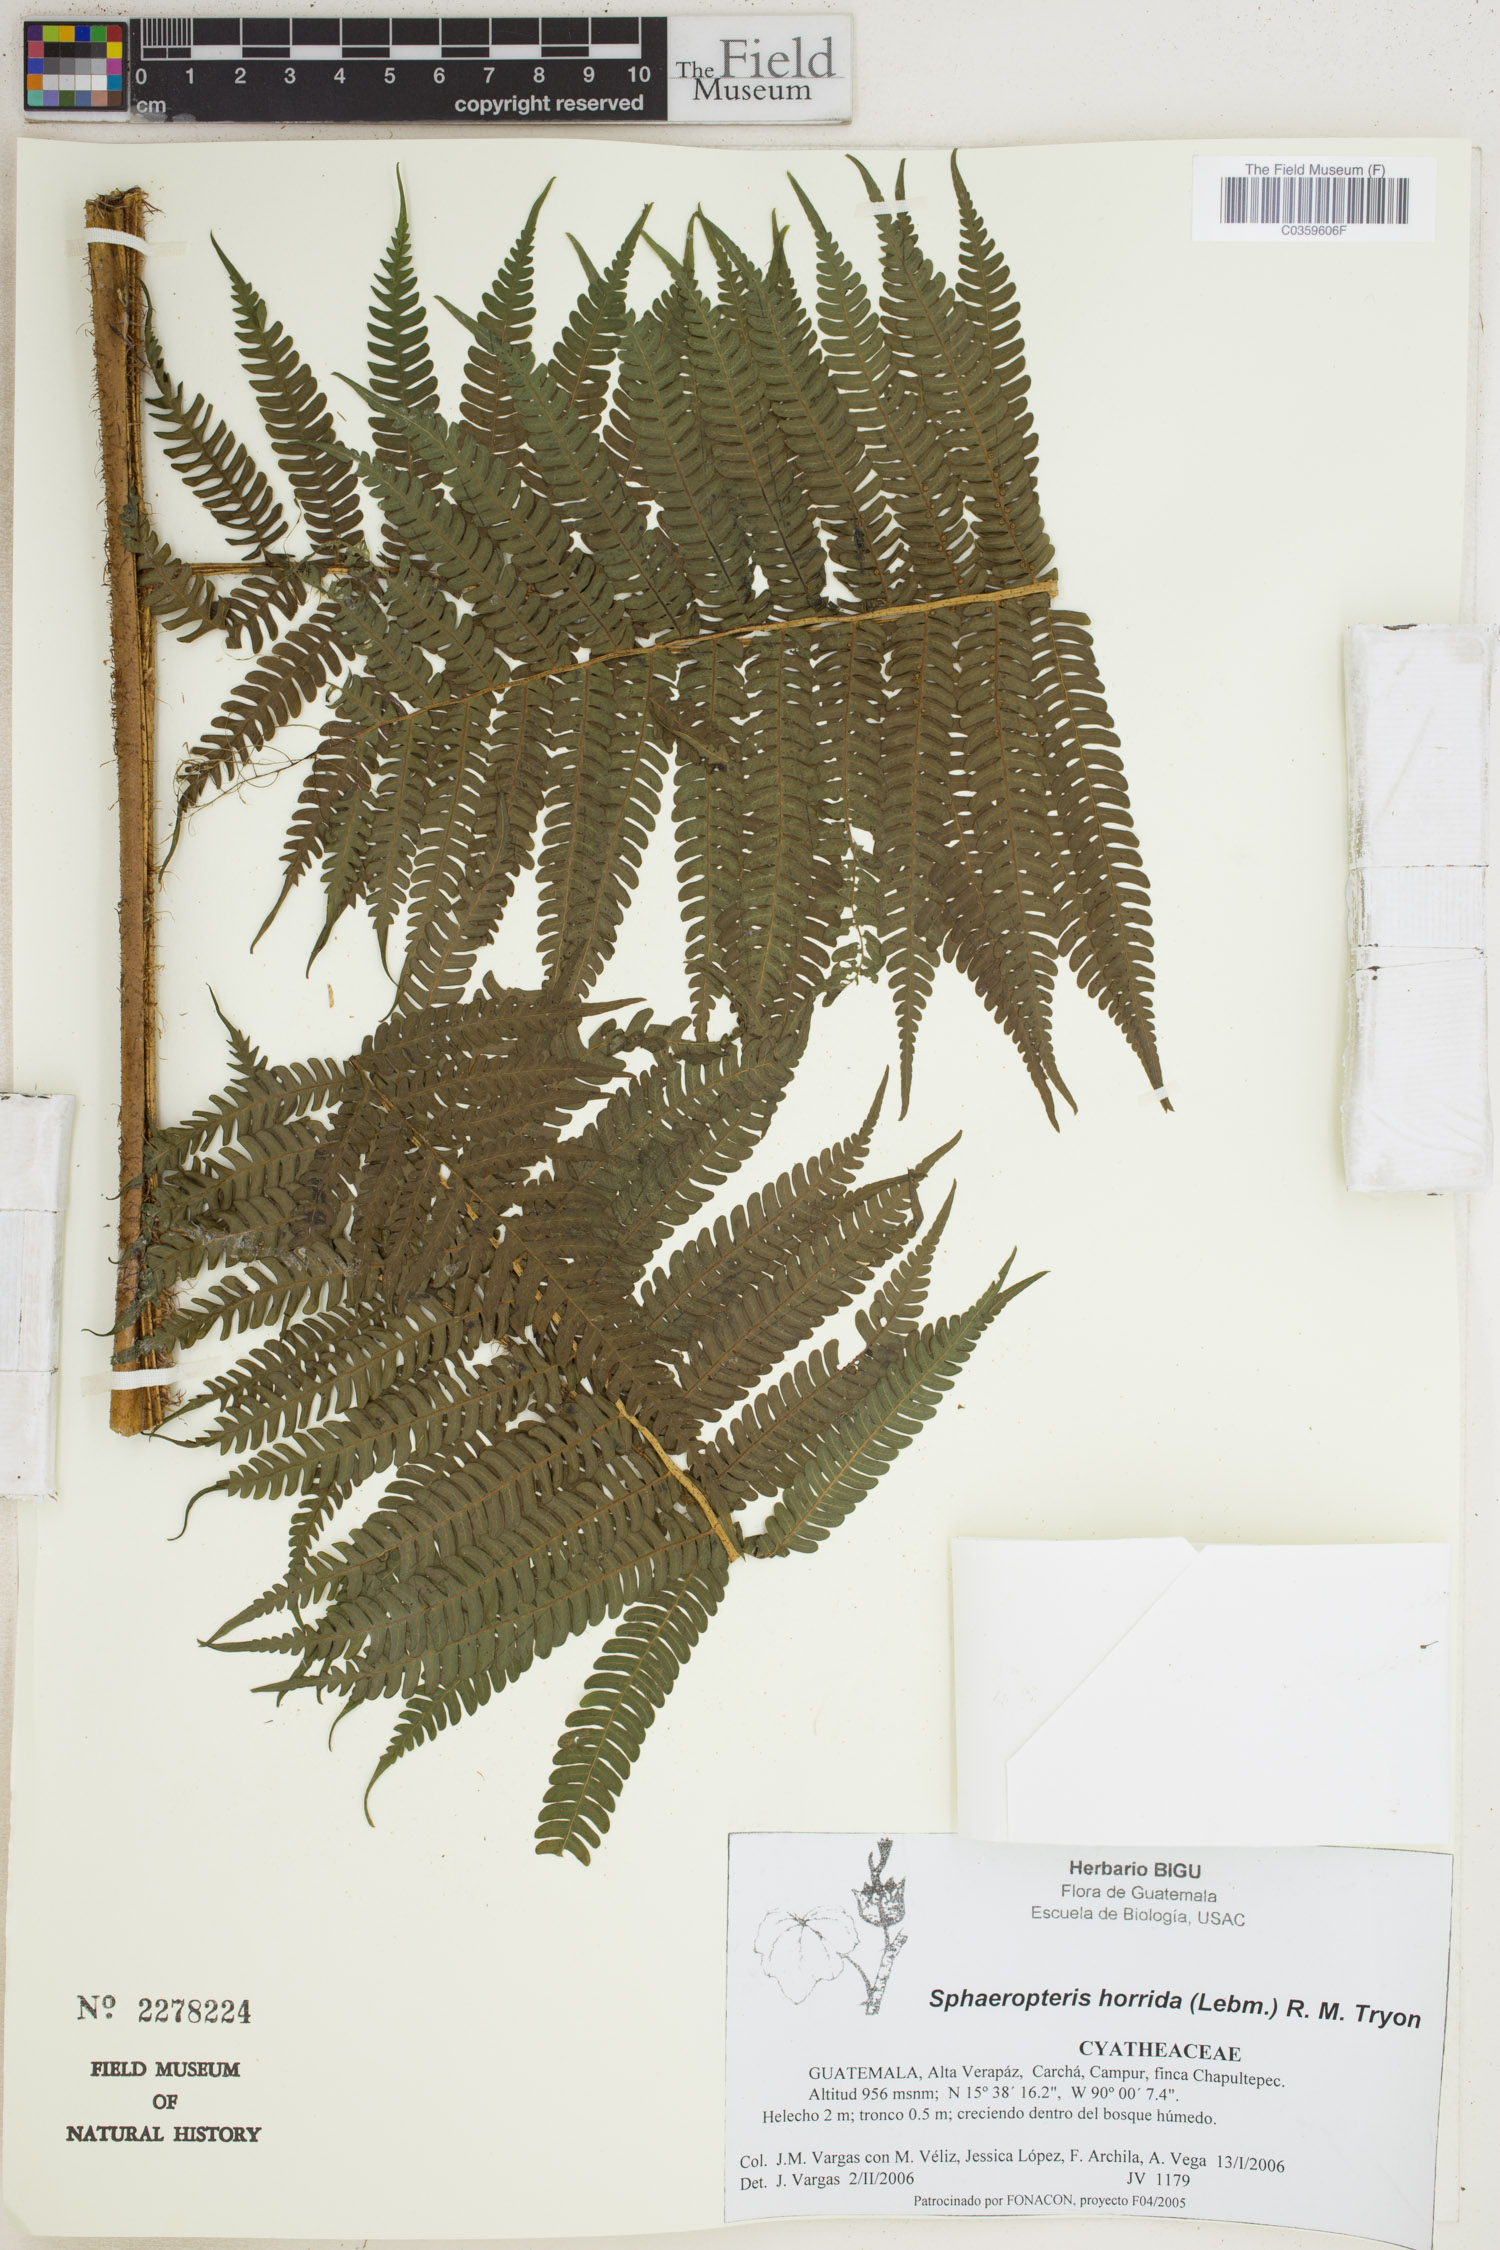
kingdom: Plantae
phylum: Tracheophyta
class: Polypodiopsida
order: Cyatheales
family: Cyatheaceae
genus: Sphaeropteris
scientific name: Sphaeropteris horrida
